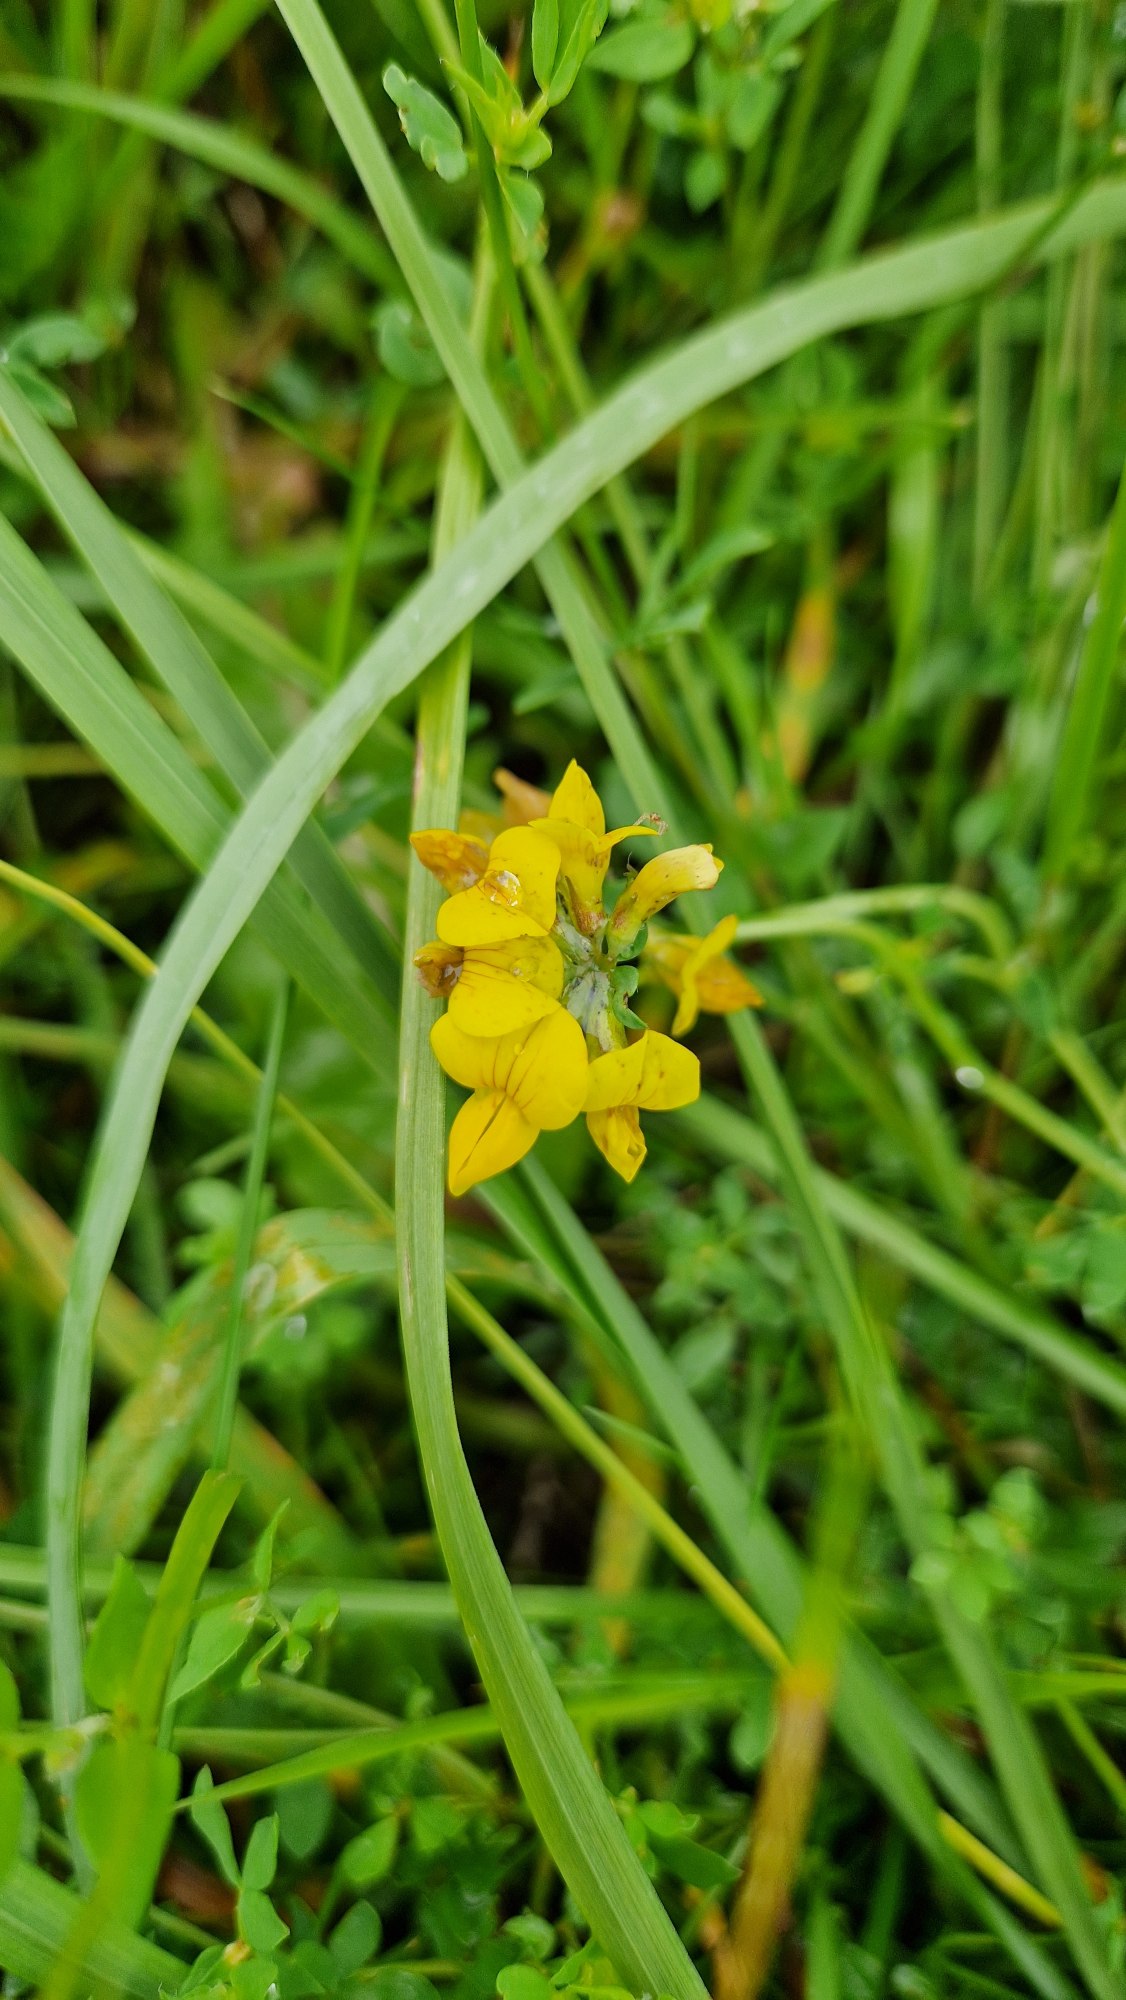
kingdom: Plantae
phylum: Tracheophyta
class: Magnoliopsida
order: Fabales
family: Fabaceae
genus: Lotus
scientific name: Lotus
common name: Kællingetandslægten
